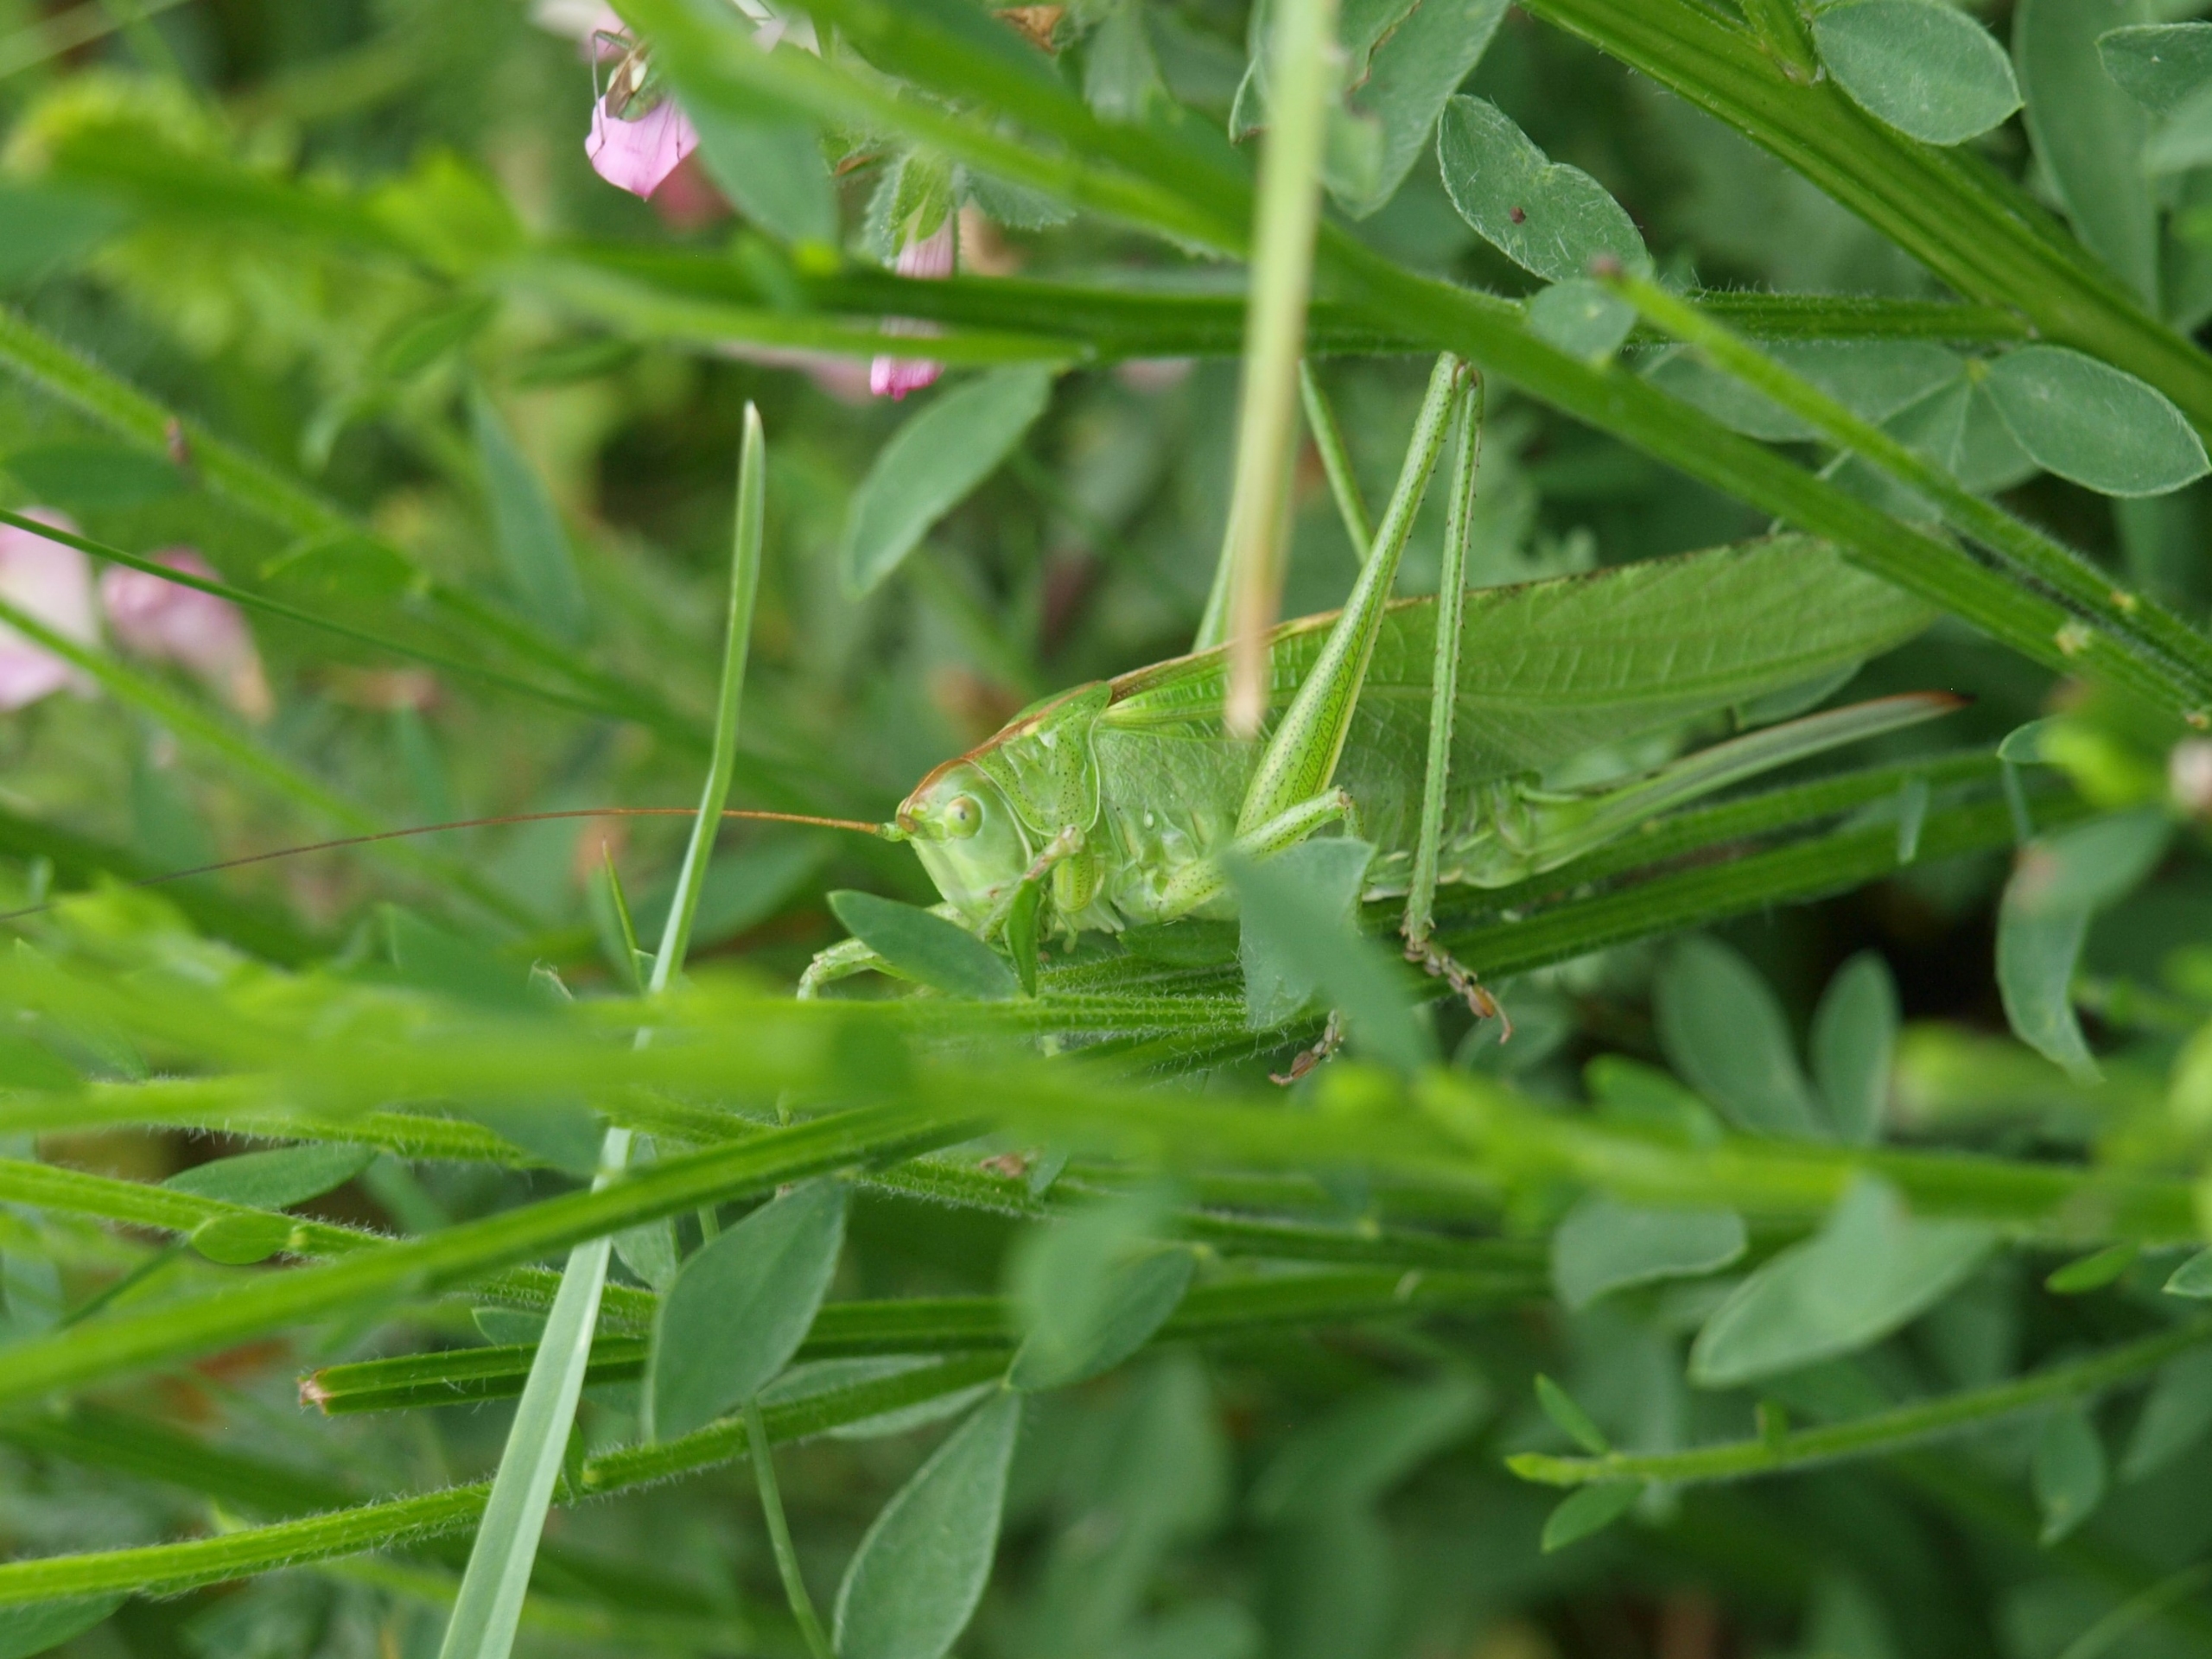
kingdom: Animalia
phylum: Arthropoda
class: Insecta
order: Orthoptera
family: Tettigoniidae
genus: Tettigonia
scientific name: Tettigonia viridissima
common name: Stor grøn løvgræshoppe
